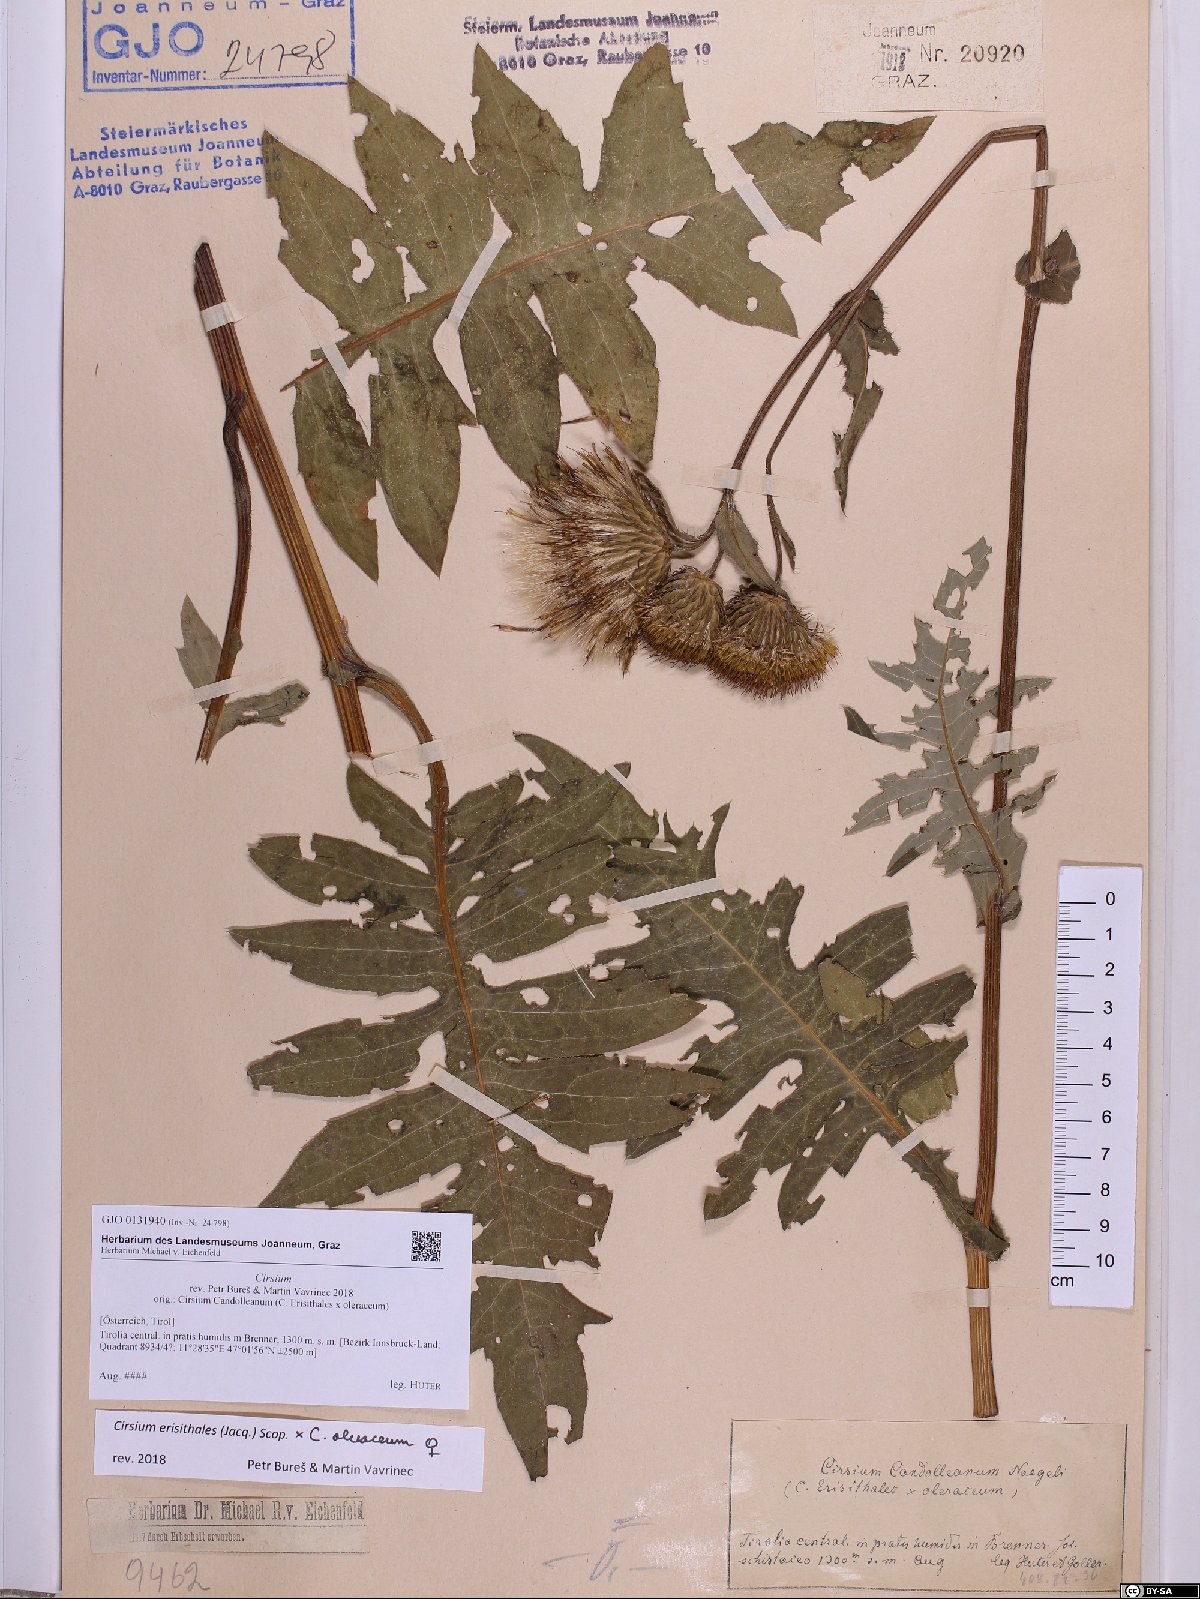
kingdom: Plantae
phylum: Tracheophyta
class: Magnoliopsida
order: Asterales
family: Asteraceae
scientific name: Asteraceae
